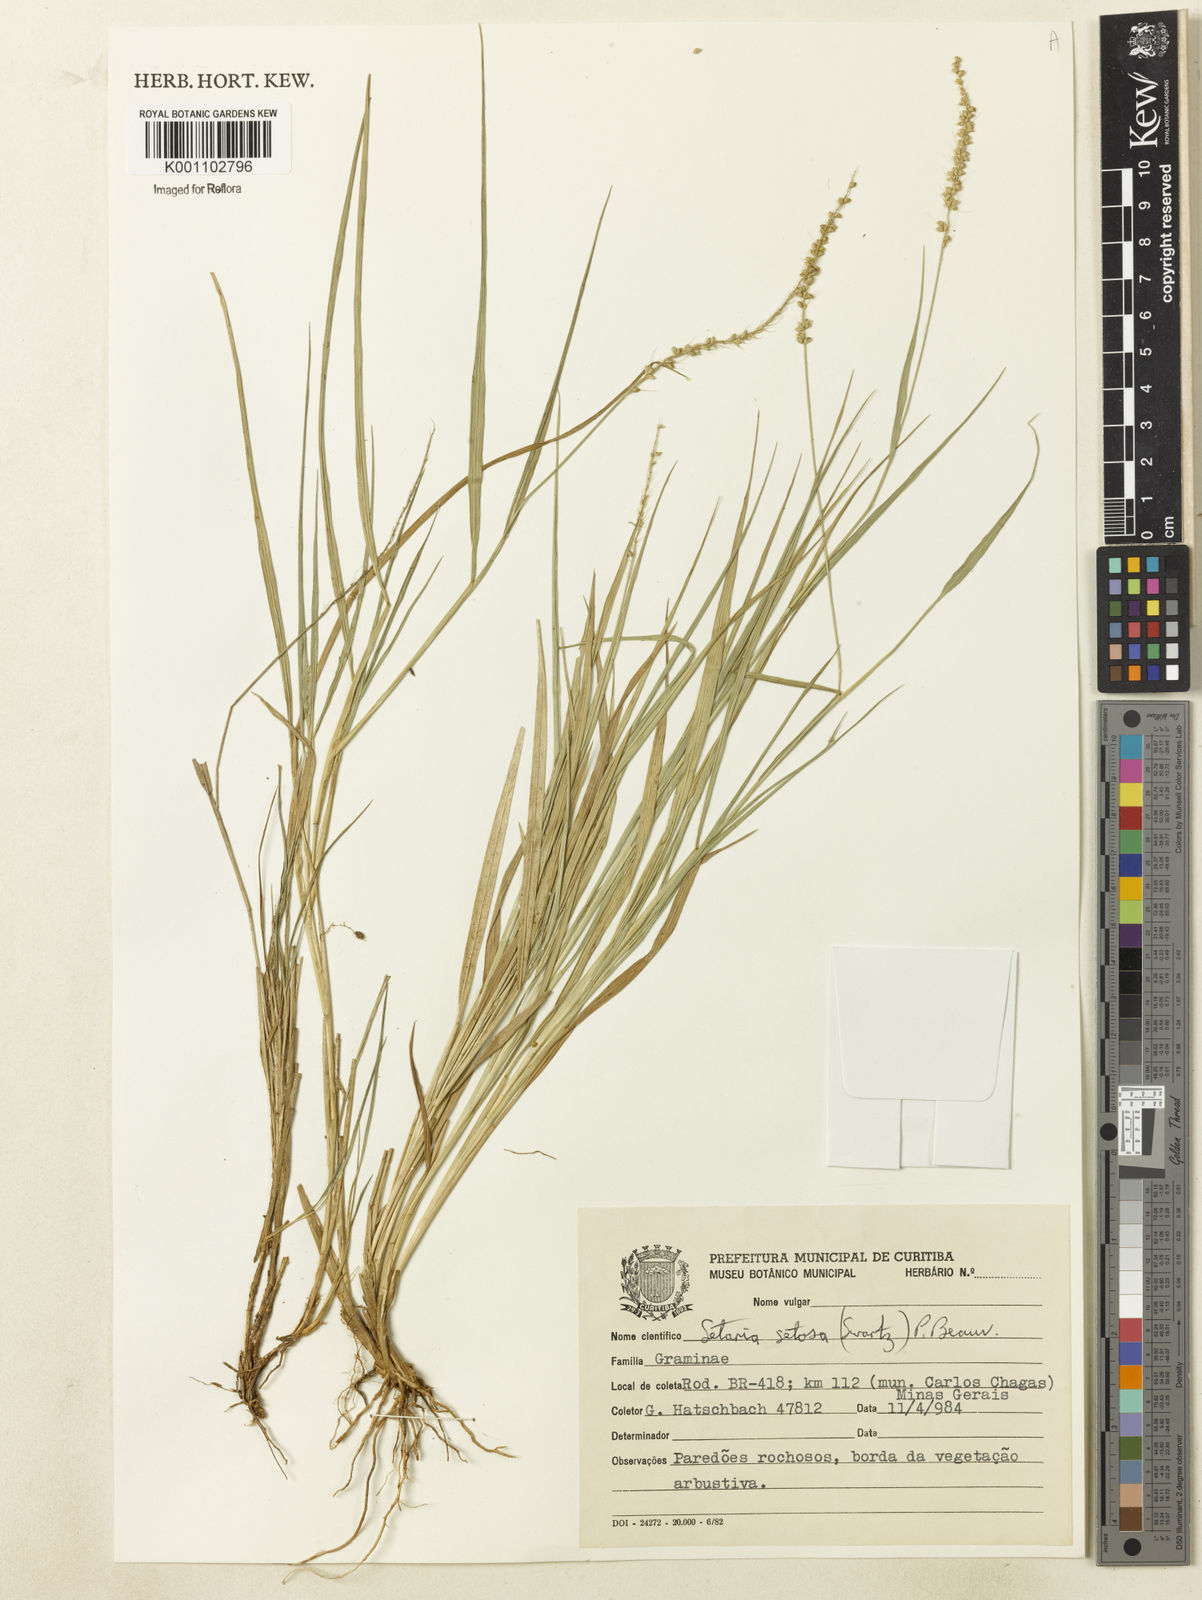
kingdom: Plantae
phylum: Tracheophyta
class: Liliopsida
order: Poales
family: Poaceae
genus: Setaria
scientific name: Setaria setosa
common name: West indies bristle grass
